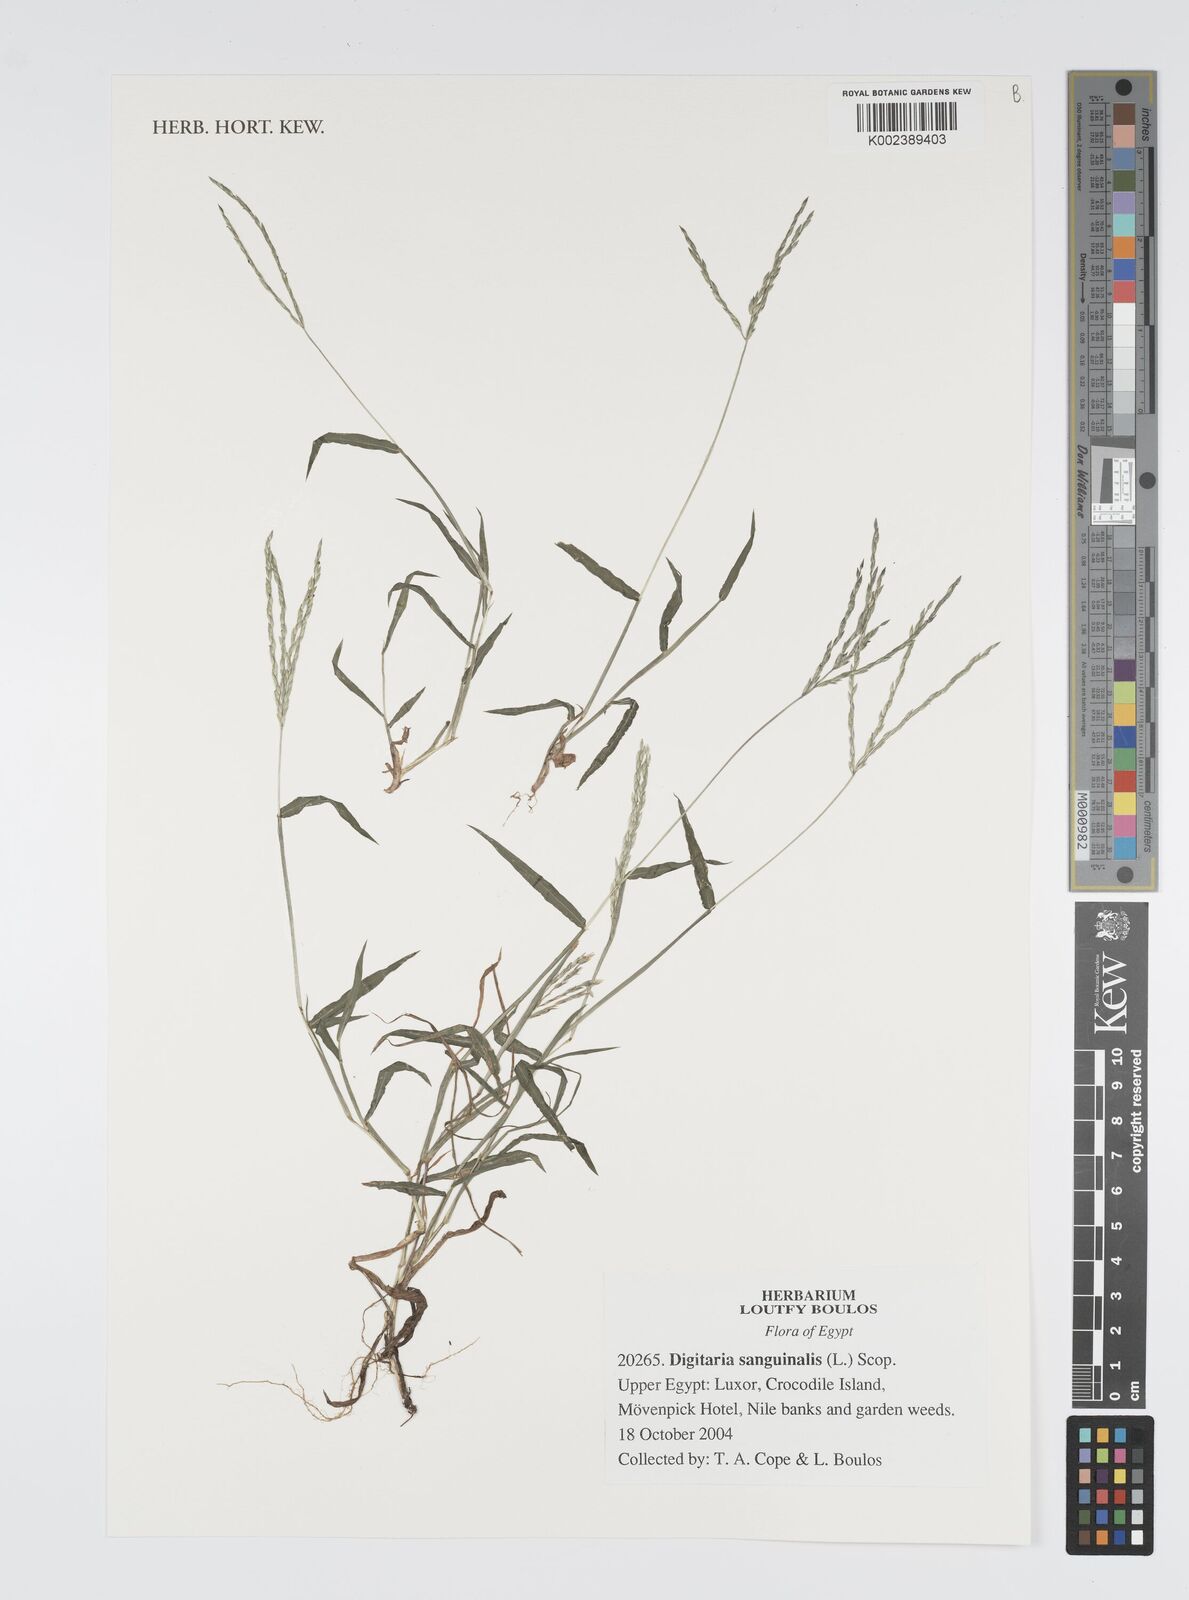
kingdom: Plantae
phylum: Tracheophyta
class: Liliopsida
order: Poales
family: Poaceae
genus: Digitaria
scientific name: Digitaria sanguinalis
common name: Hairy crabgrass
